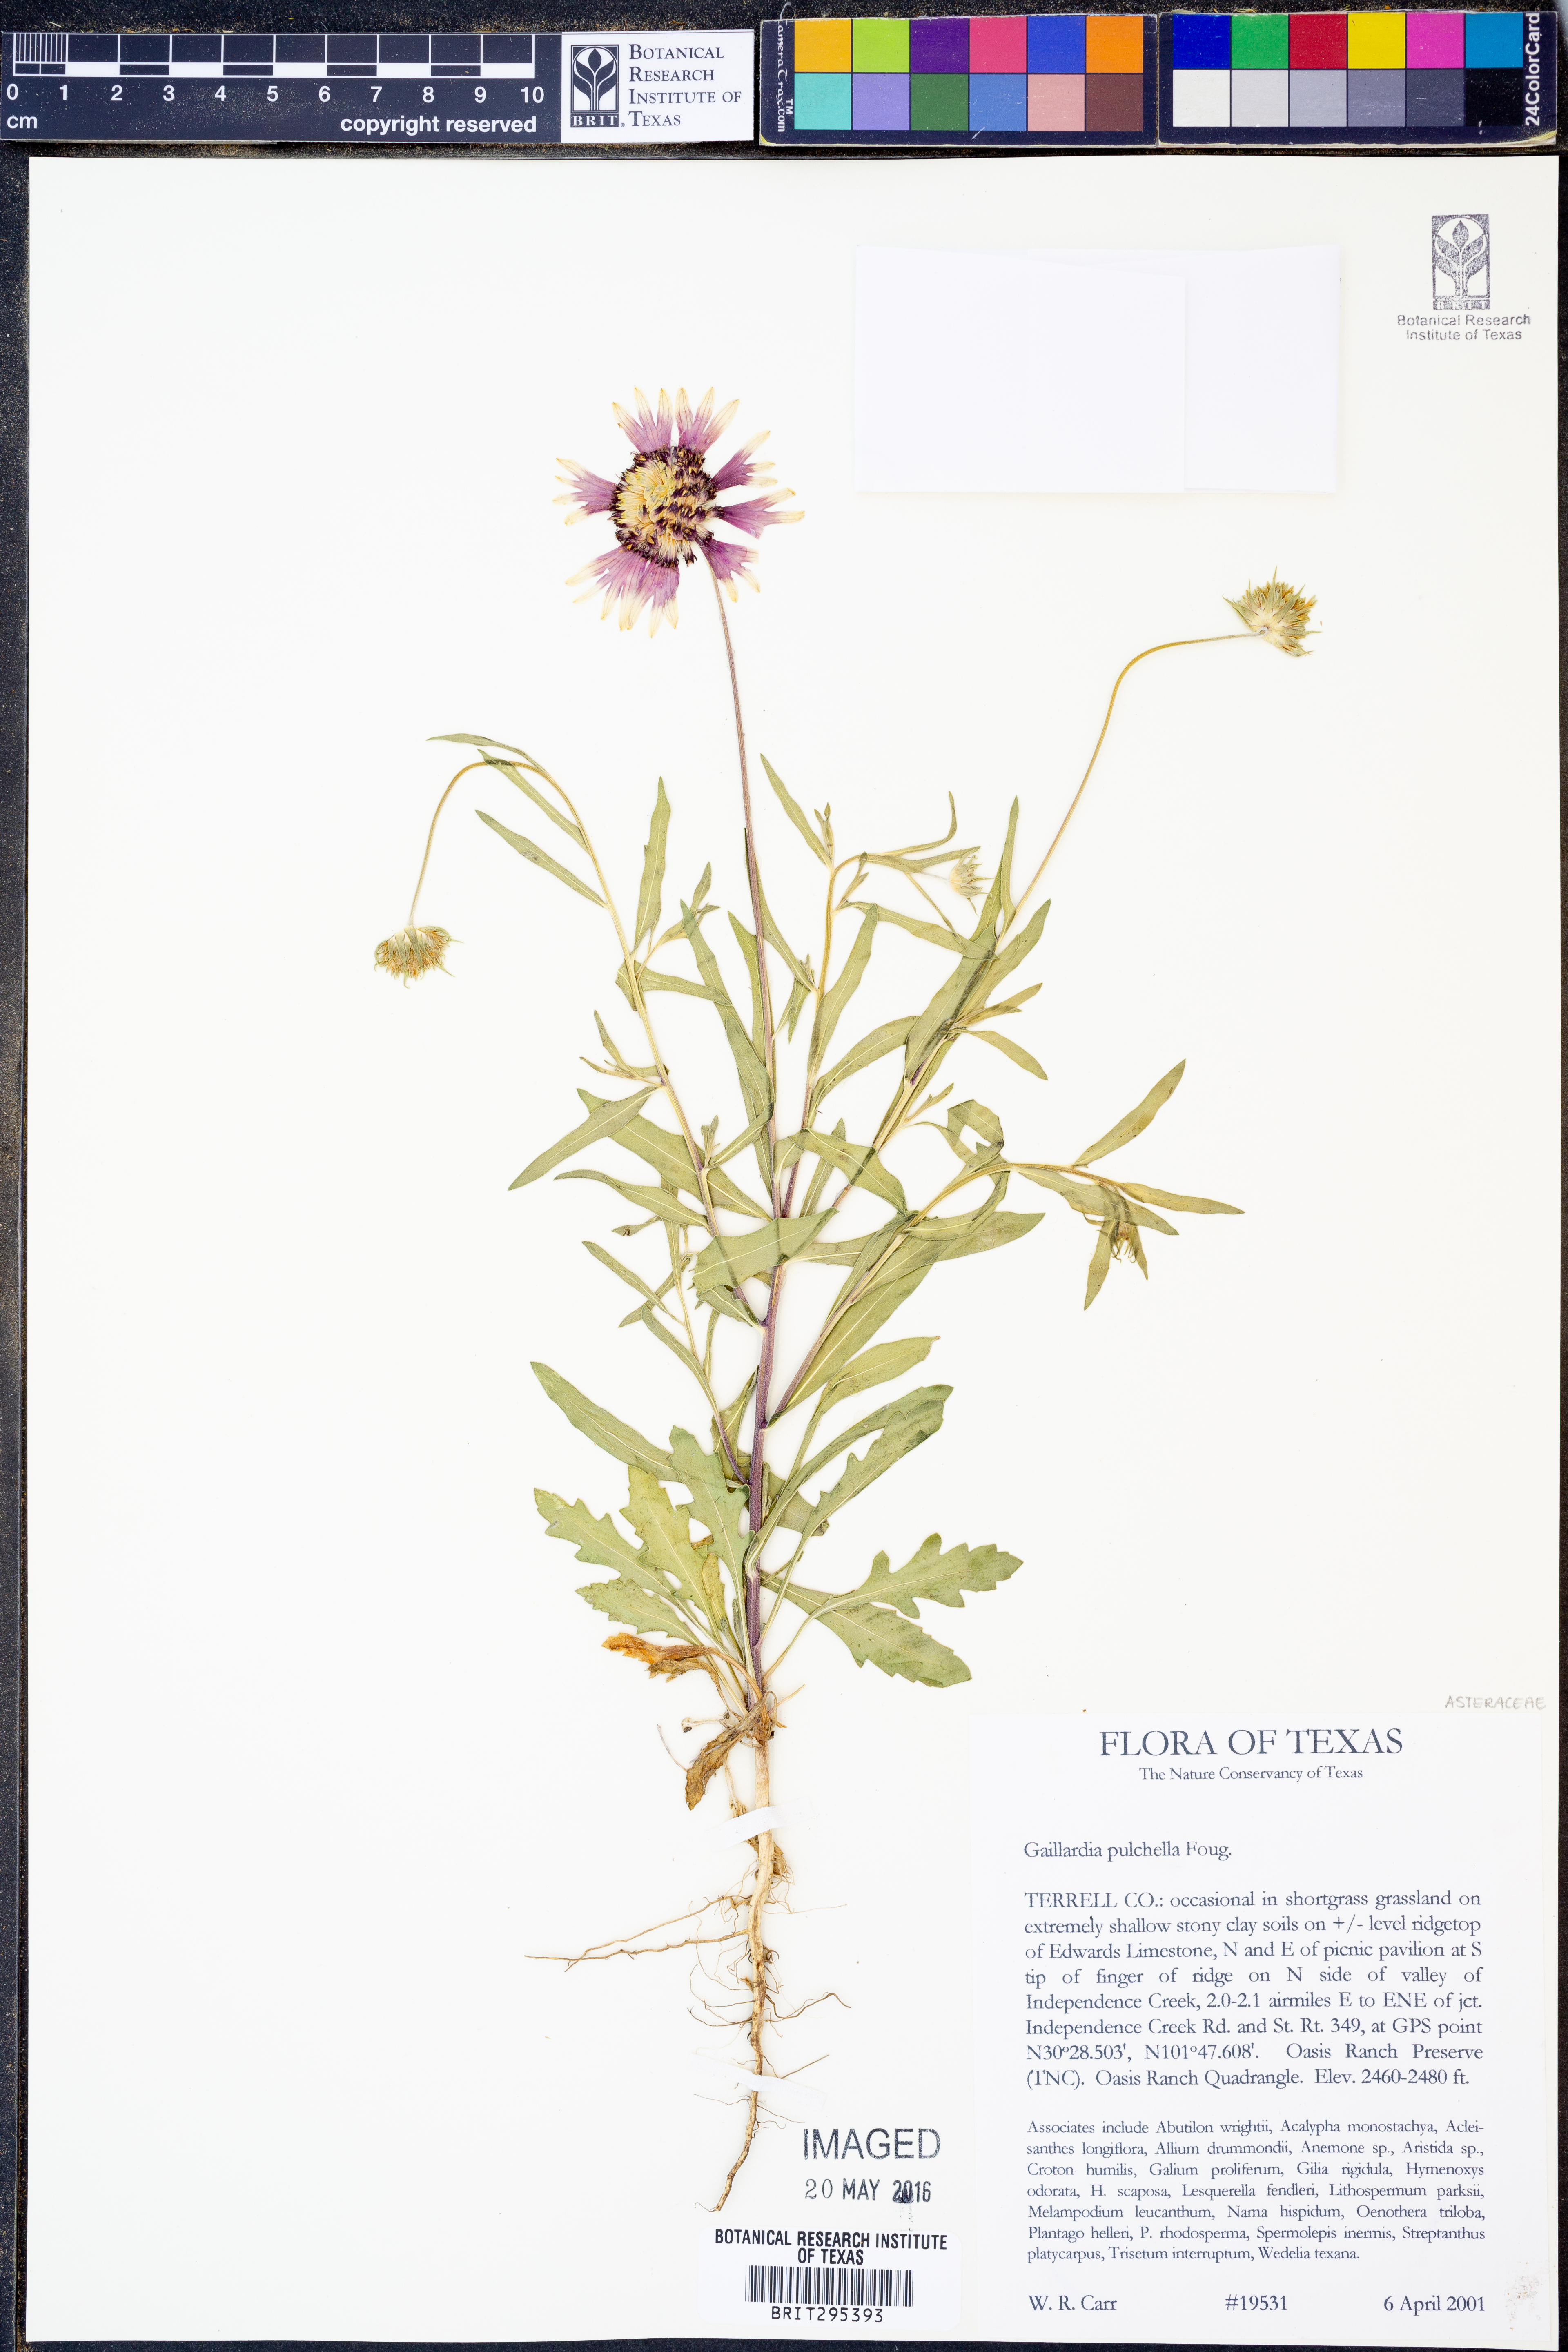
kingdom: Plantae
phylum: Tracheophyta
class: Magnoliopsida
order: Asterales
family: Asteraceae
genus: Gaillardia
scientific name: Gaillardia pulchella
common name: Firewheel
